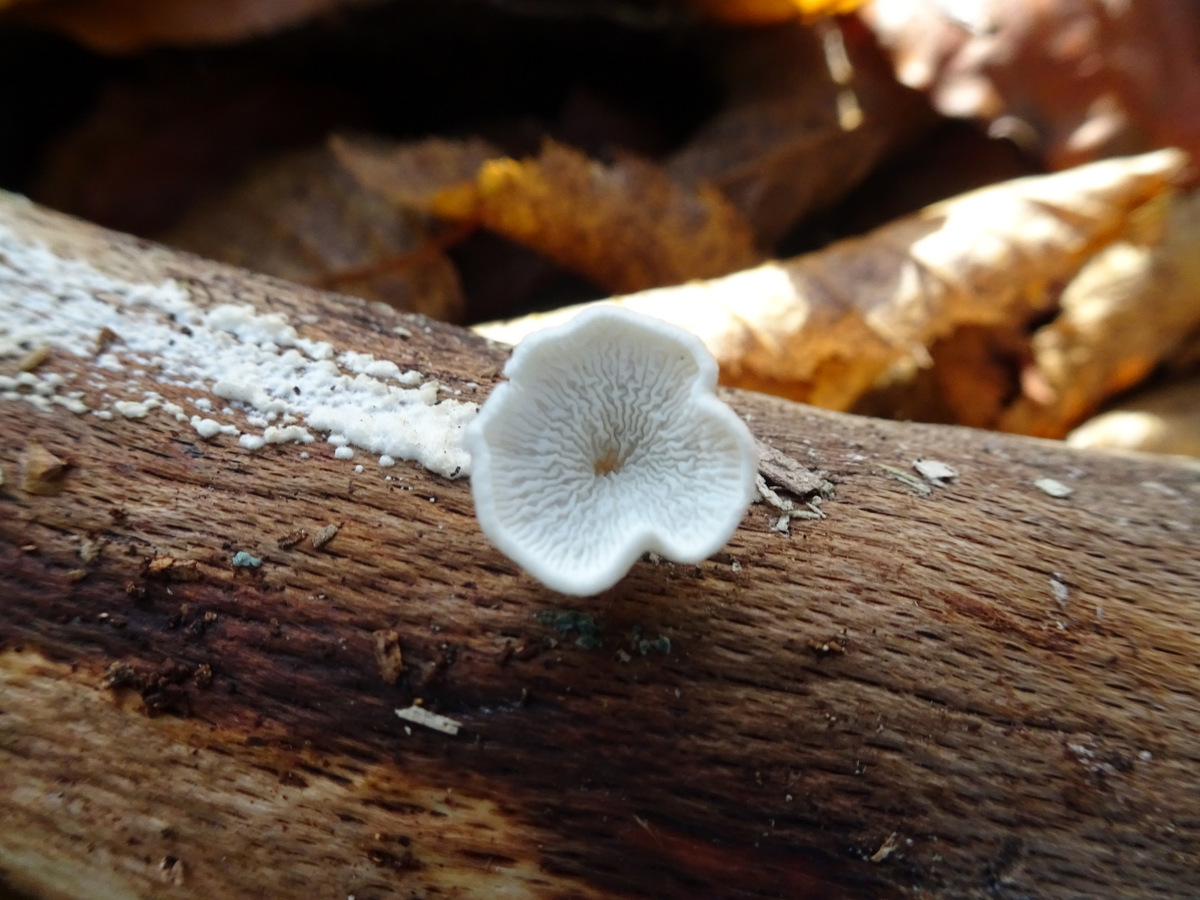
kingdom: Fungi
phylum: Basidiomycota
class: Agaricomycetes
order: Amylocorticiales
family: Amylocorticiaceae
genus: Plicaturopsis
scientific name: Plicaturopsis crispa
